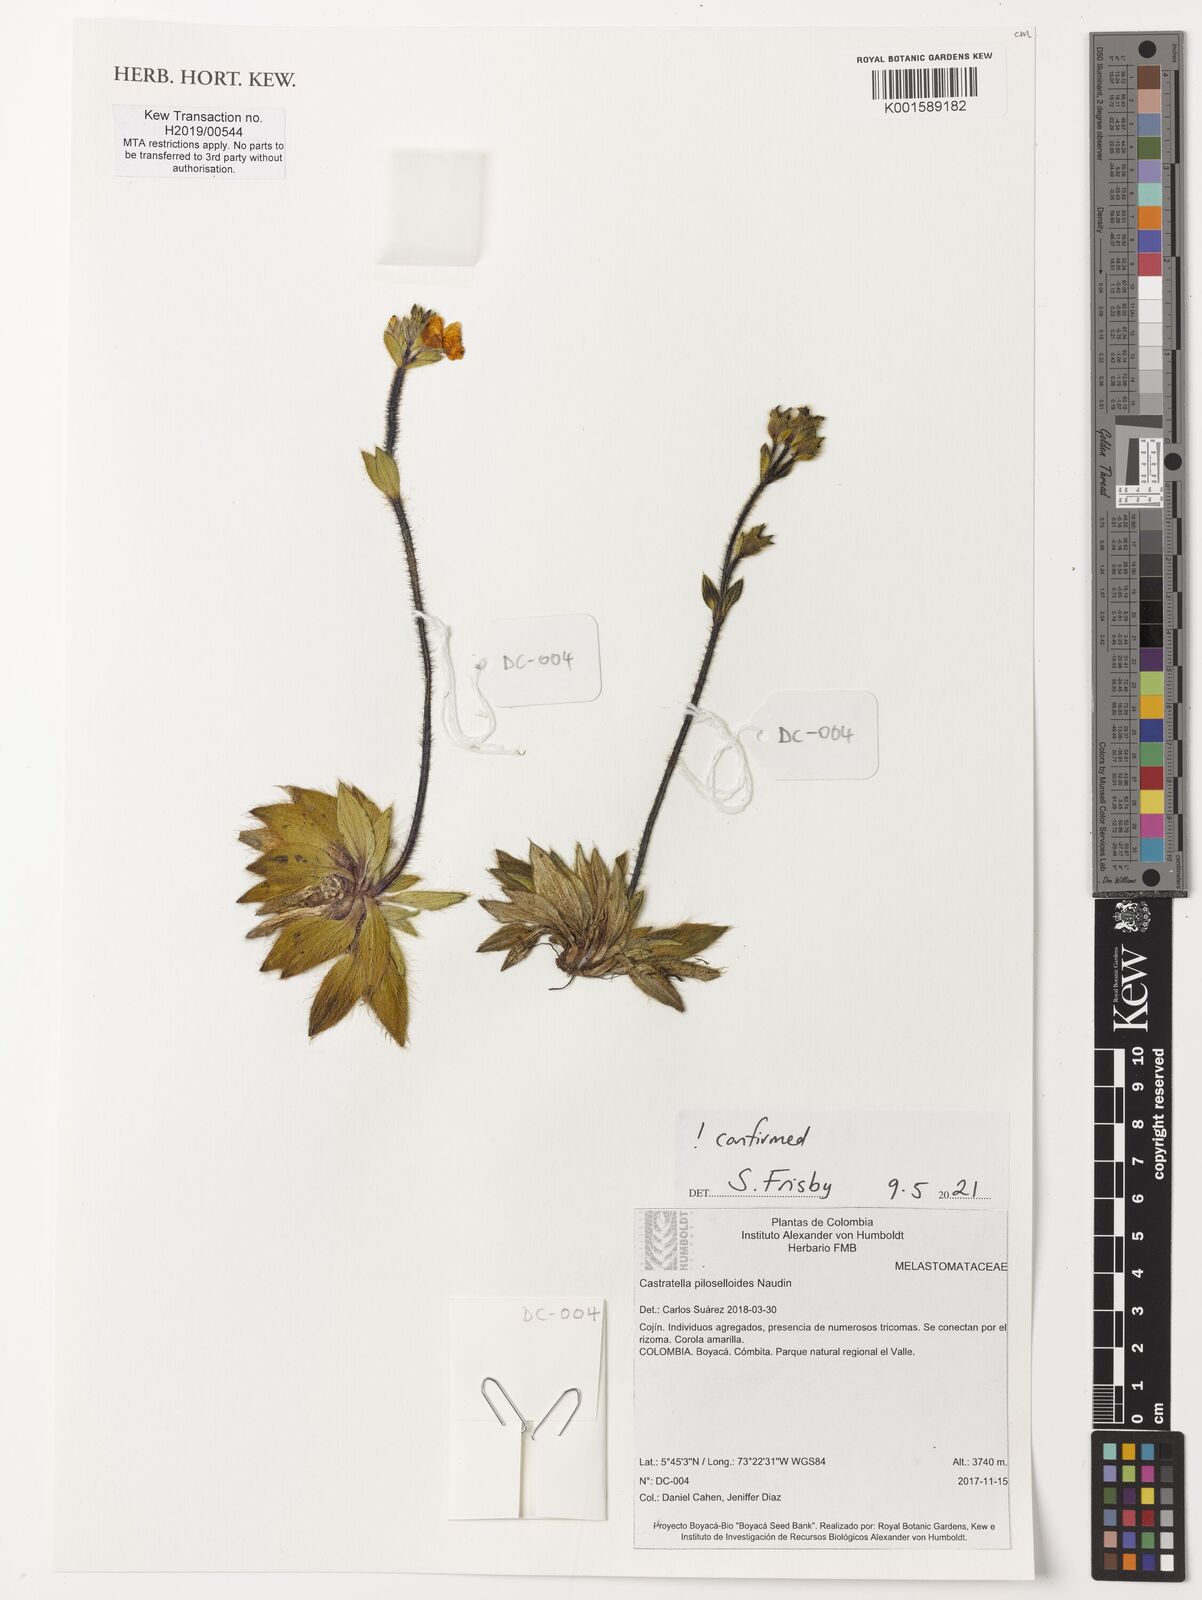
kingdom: Plantae
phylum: Tracheophyta
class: Magnoliopsida
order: Myrtales
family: Melastomataceae
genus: Castratella
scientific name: Castratella piloselloides
